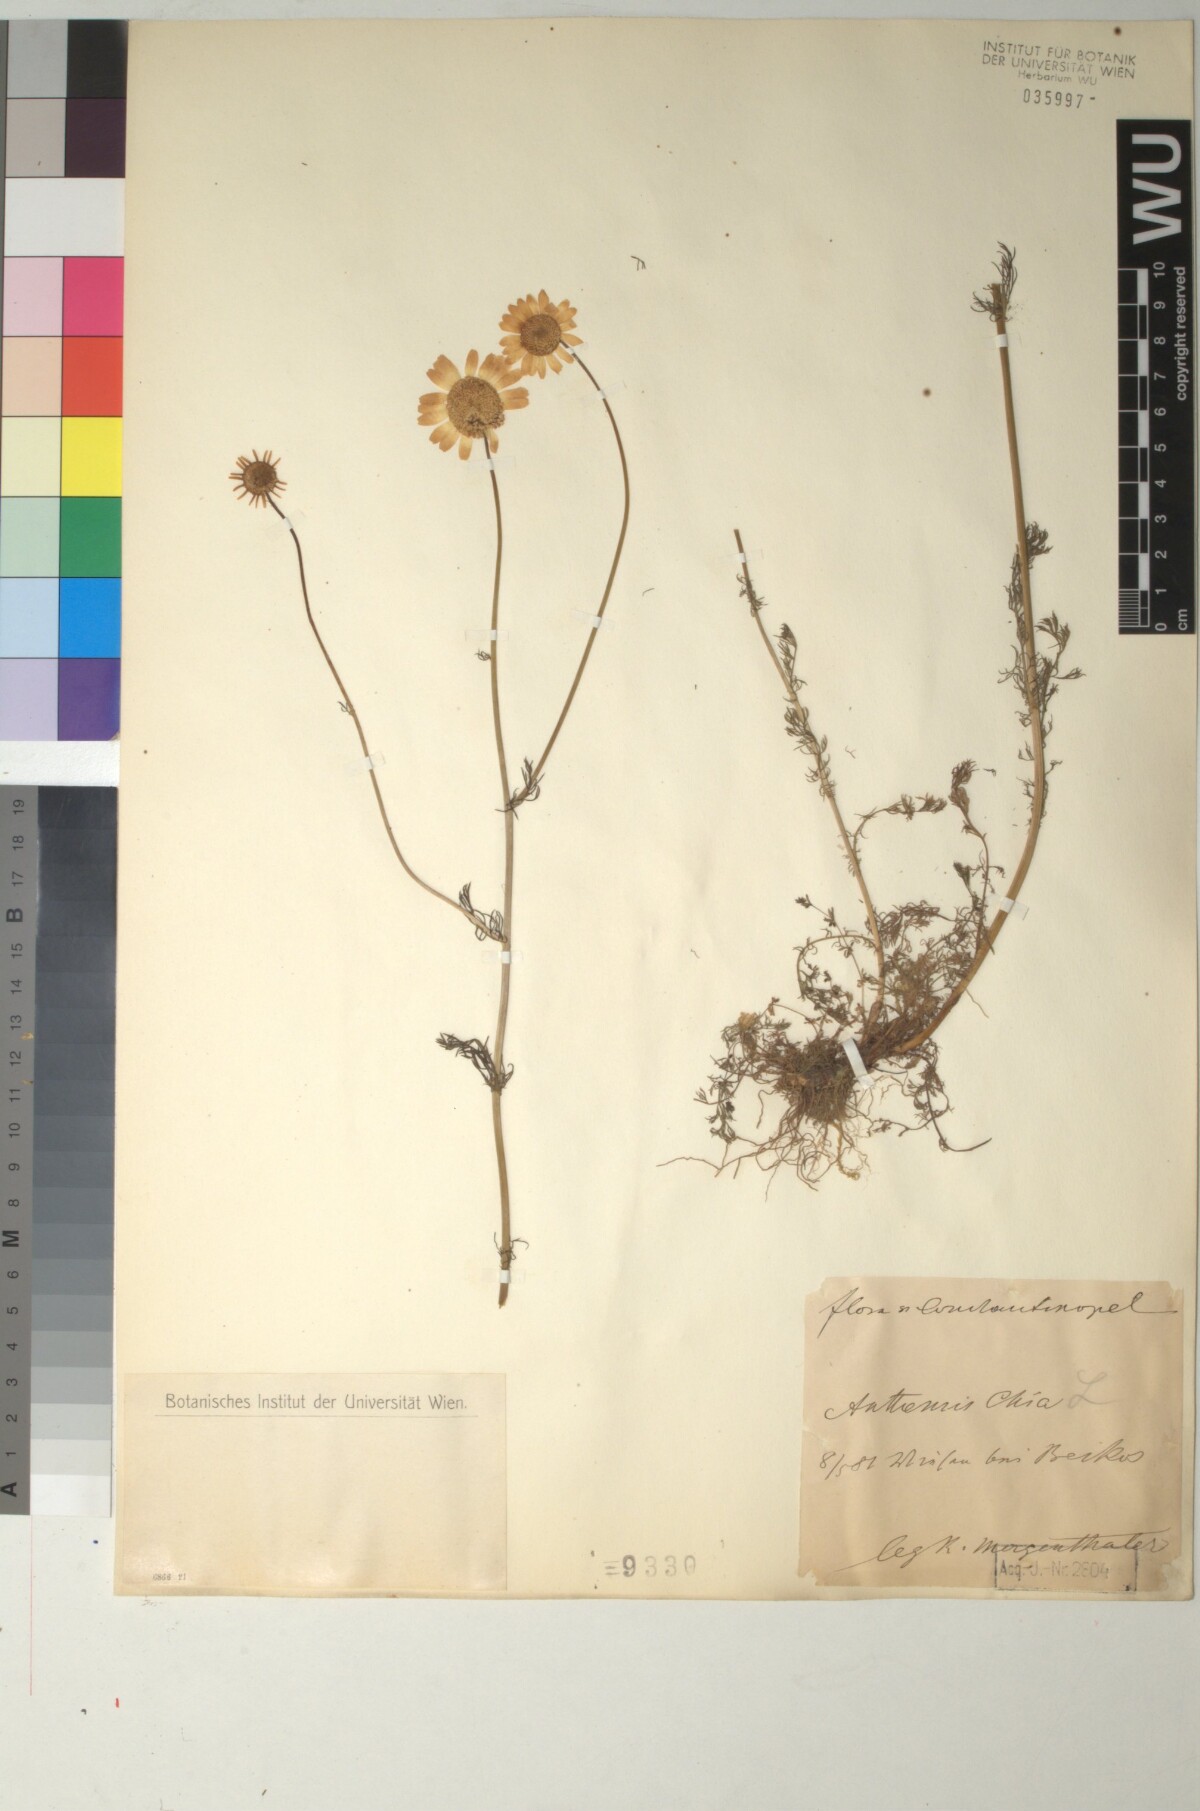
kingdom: Plantae
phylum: Tracheophyta
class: Magnoliopsida
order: Asterales
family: Asteraceae
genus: Anthemis
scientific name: Anthemis chia
